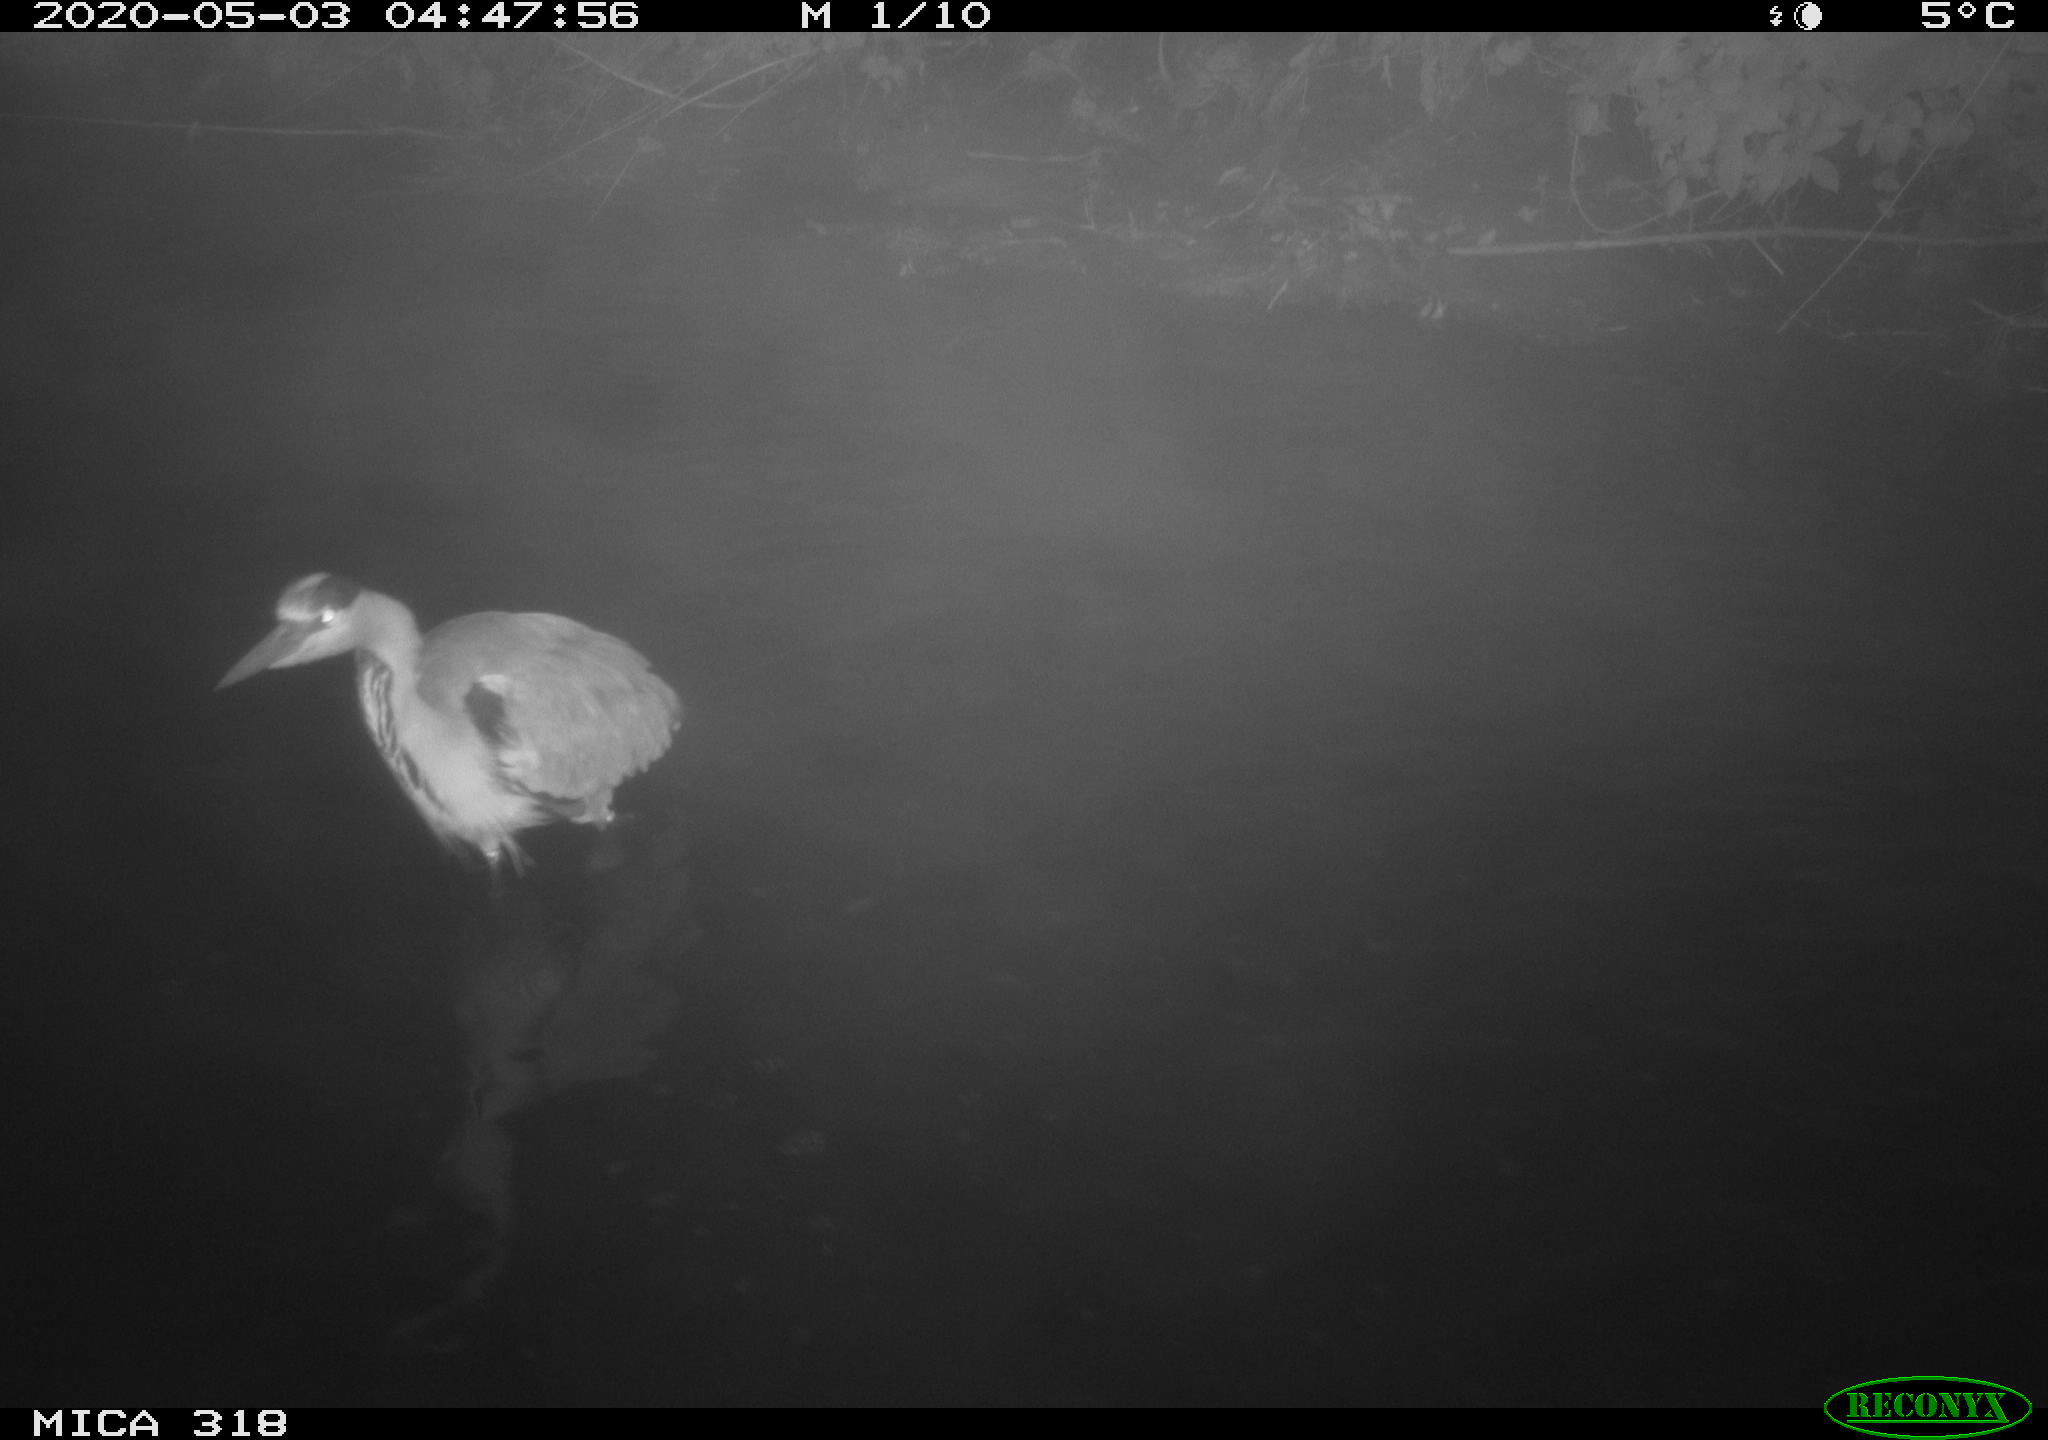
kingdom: Animalia
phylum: Chordata
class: Aves
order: Pelecaniformes
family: Ardeidae
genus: Ardea
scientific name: Ardea cinerea
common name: Grey heron
